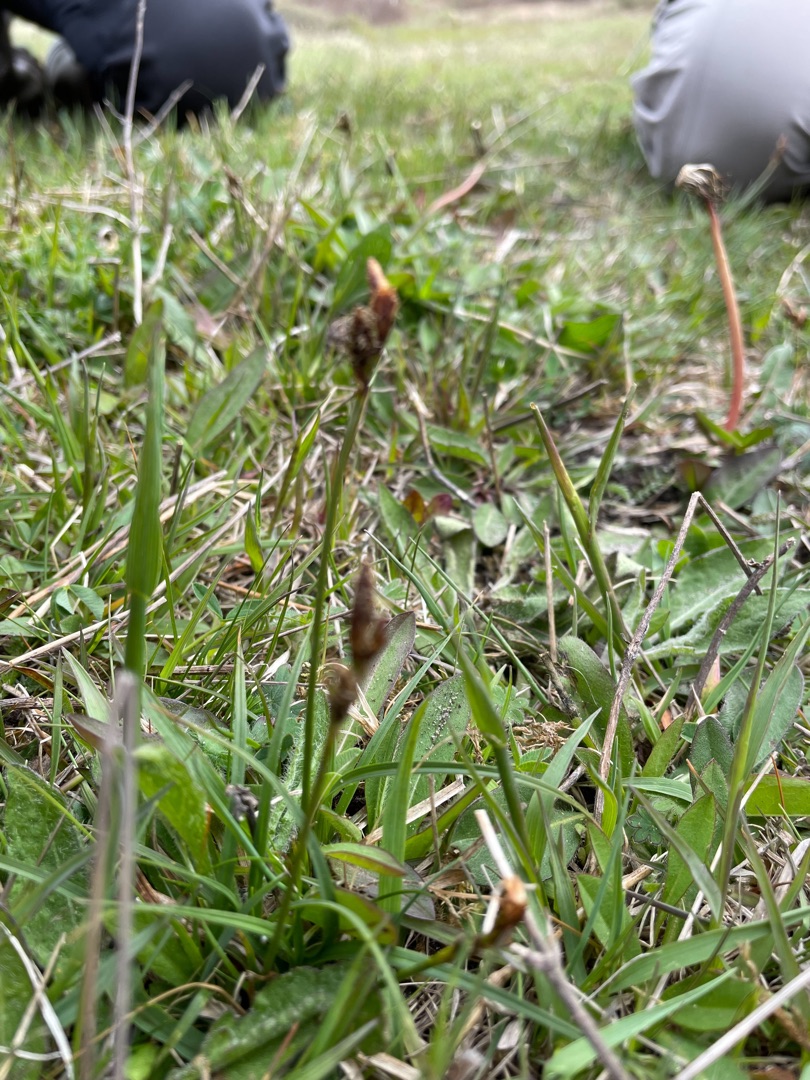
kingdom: Plantae
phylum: Tracheophyta
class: Liliopsida
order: Poales
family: Cyperaceae
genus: Carex
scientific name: Carex caryophyllea
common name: Vår-star
